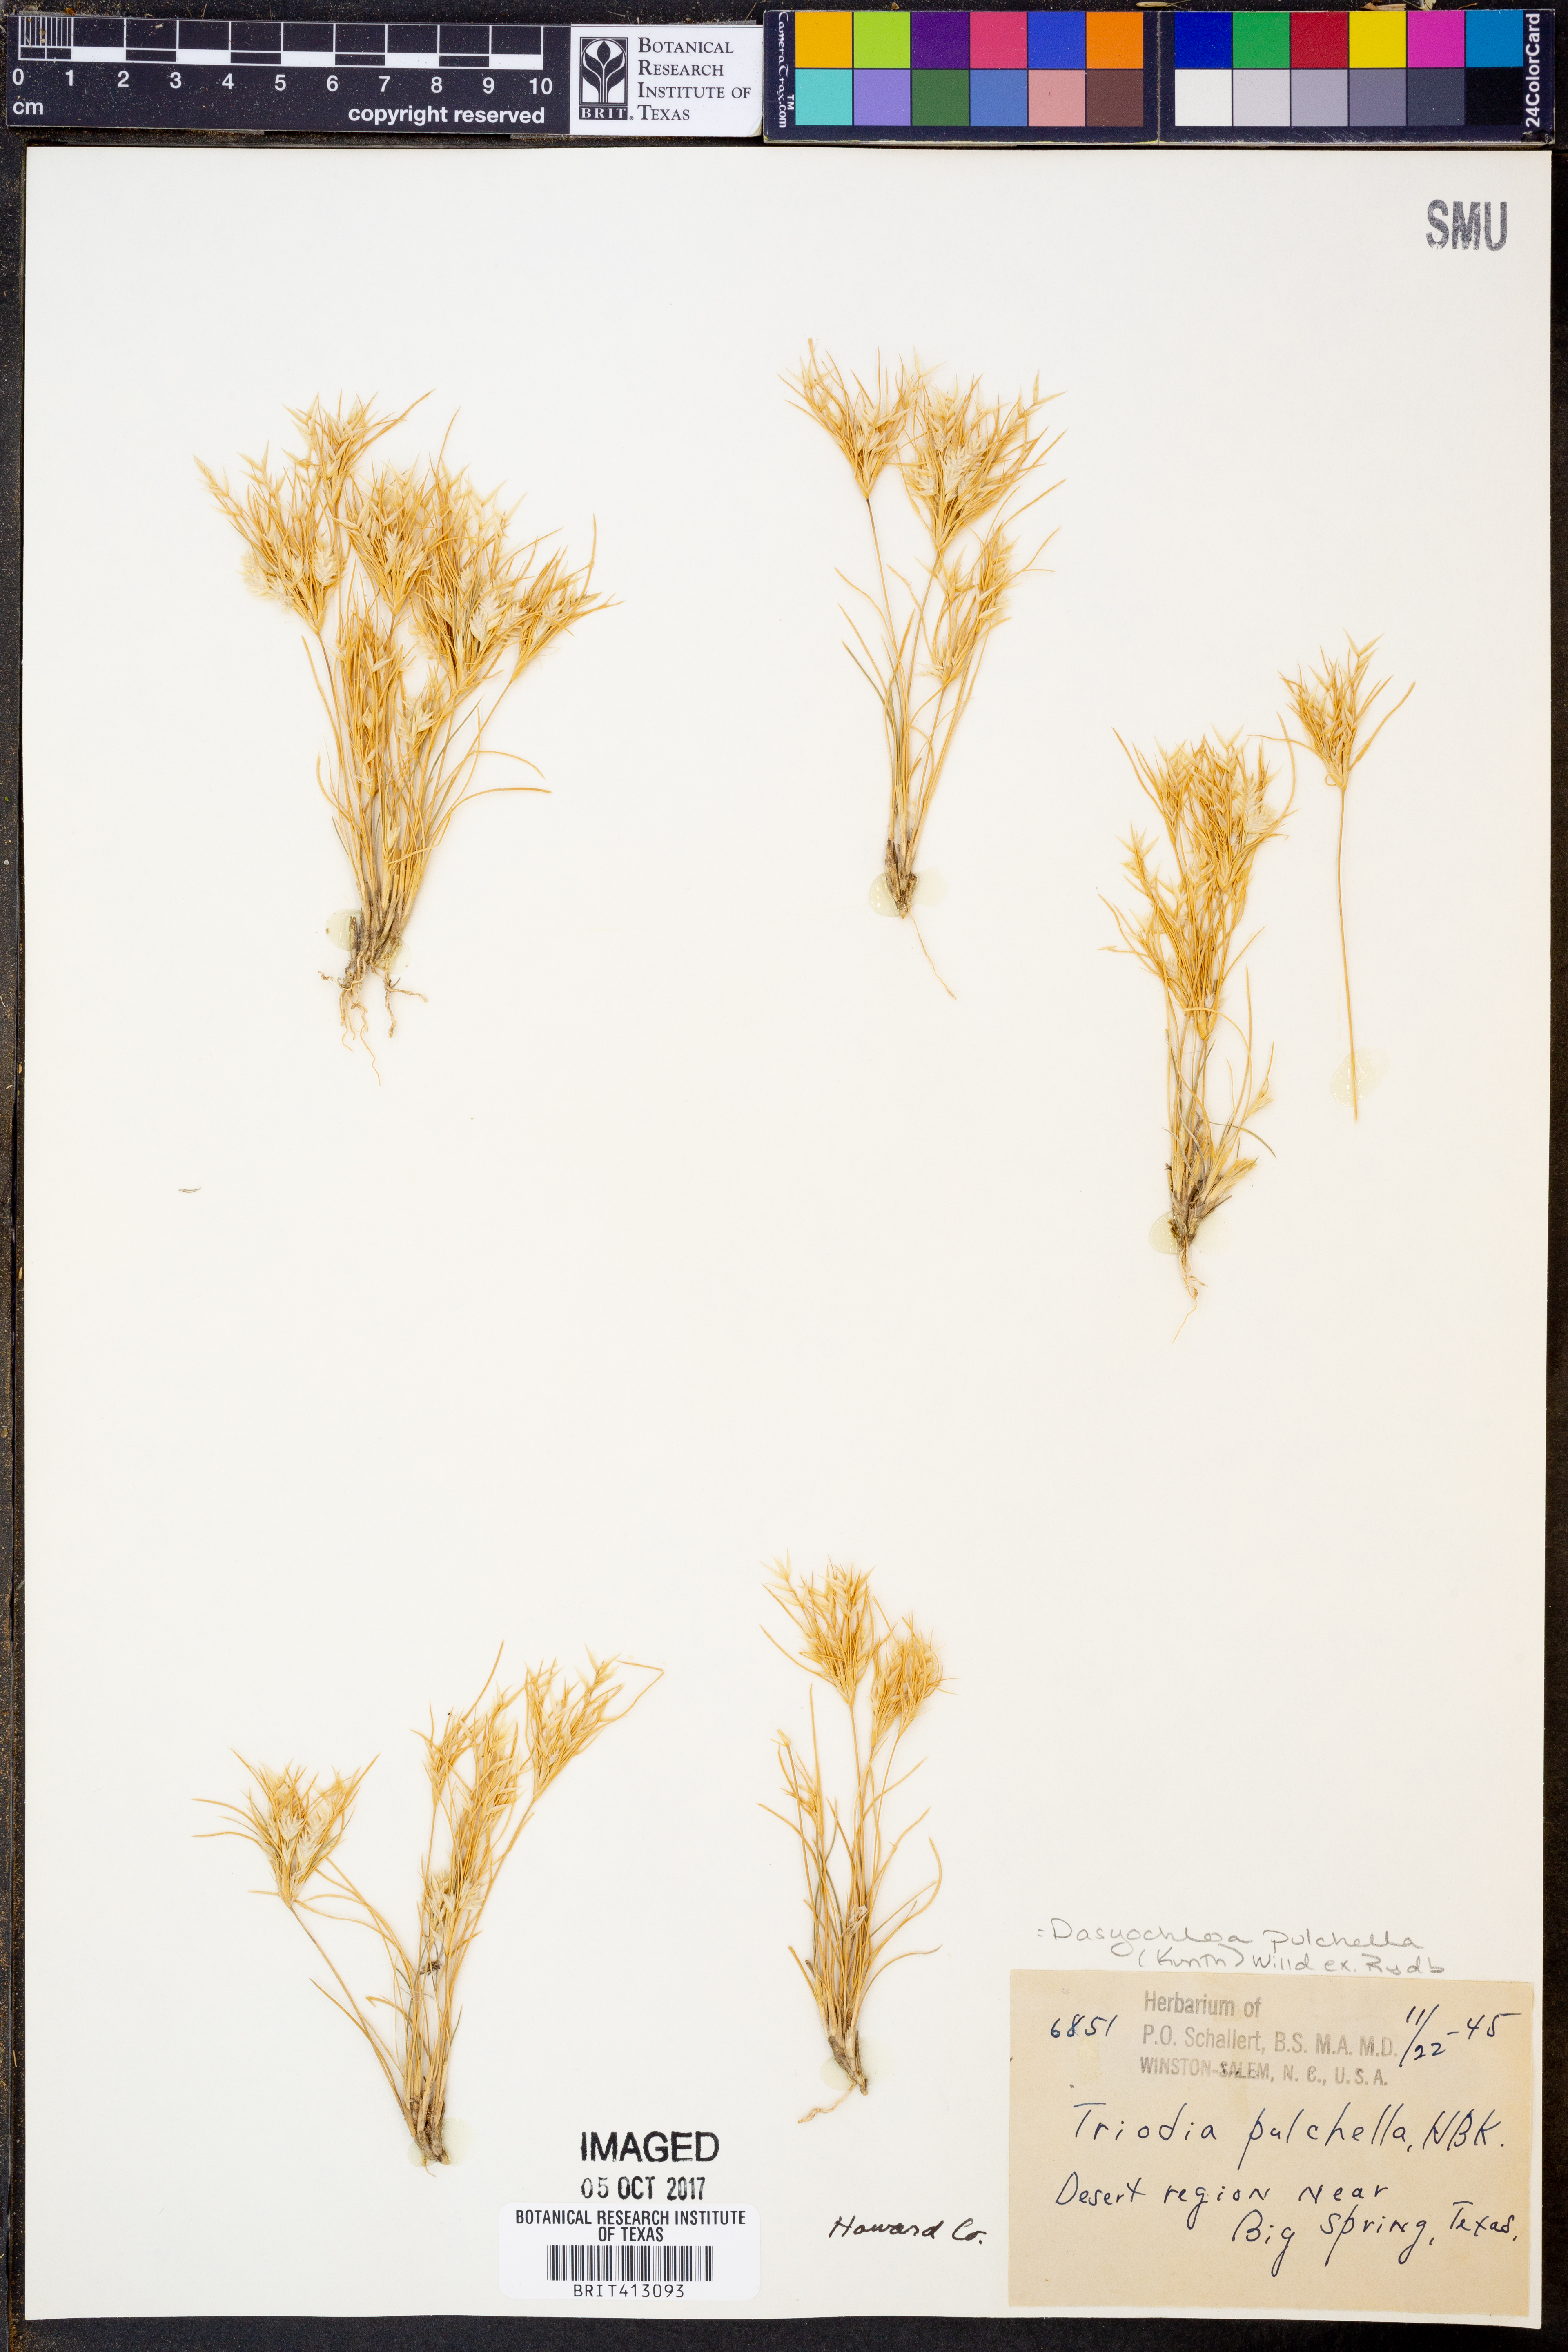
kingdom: Plantae
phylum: Tracheophyta
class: Liliopsida
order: Poales
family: Poaceae
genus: Munroa
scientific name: Munroa pulchella
